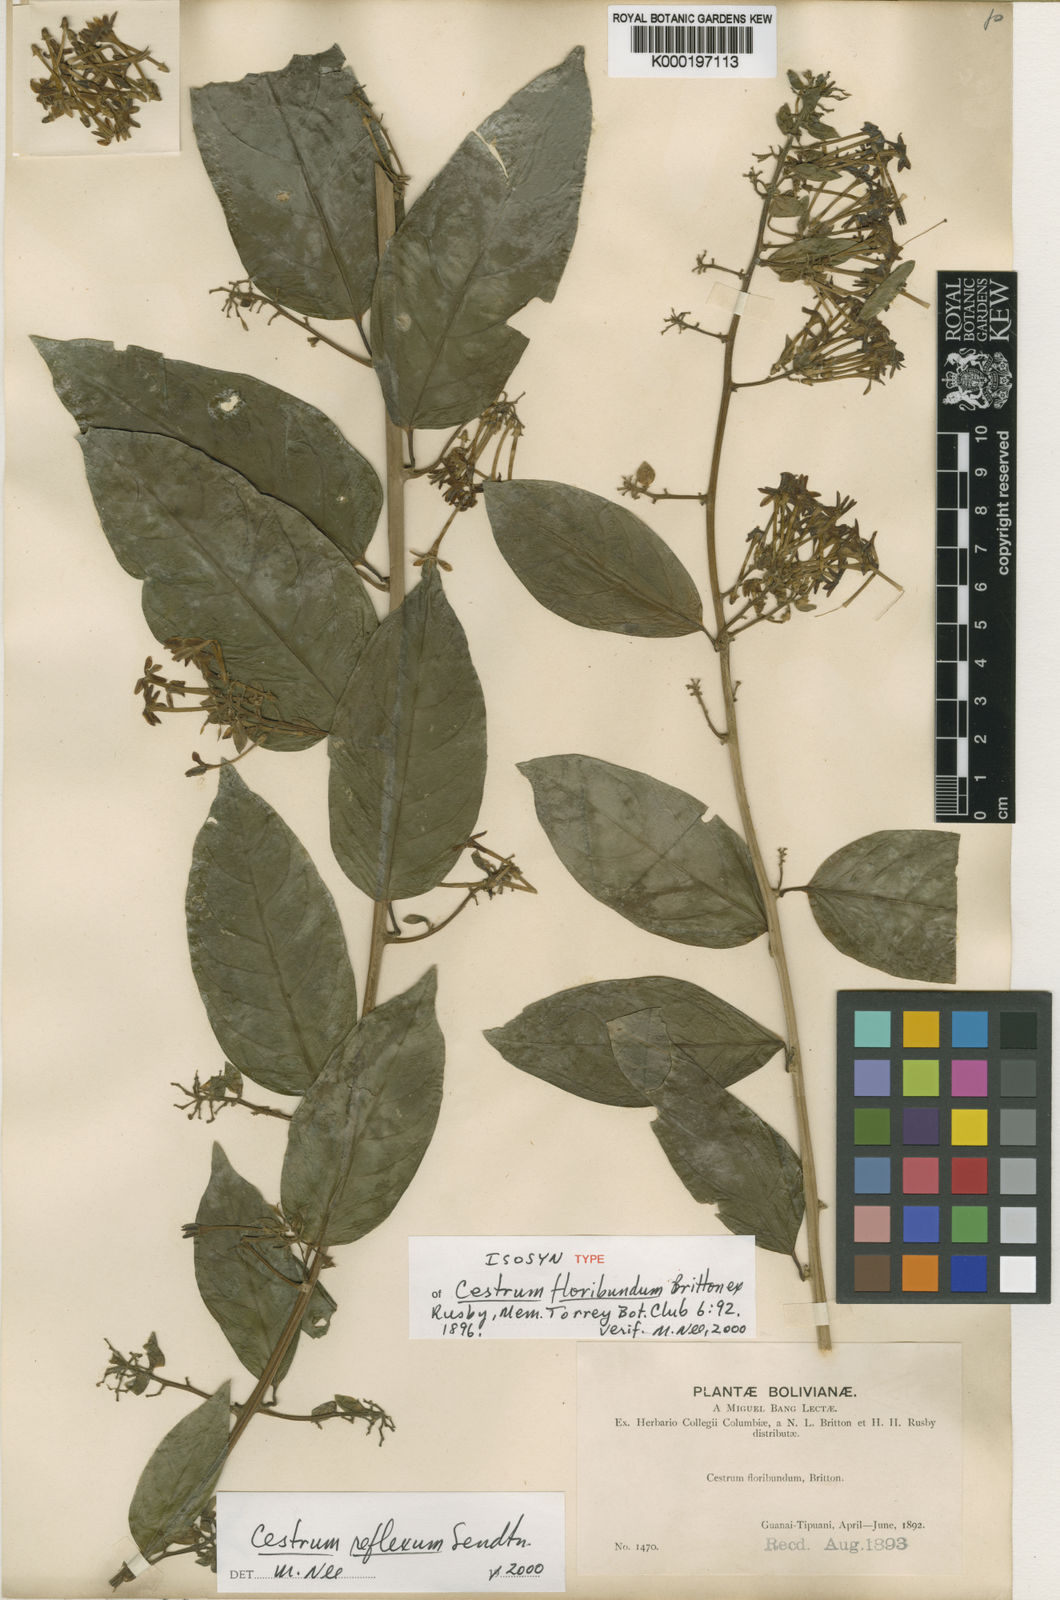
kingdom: Plantae
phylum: Tracheophyta
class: Magnoliopsida
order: Solanales
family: Solanaceae
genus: Cestrum
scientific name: Cestrum reflexum
